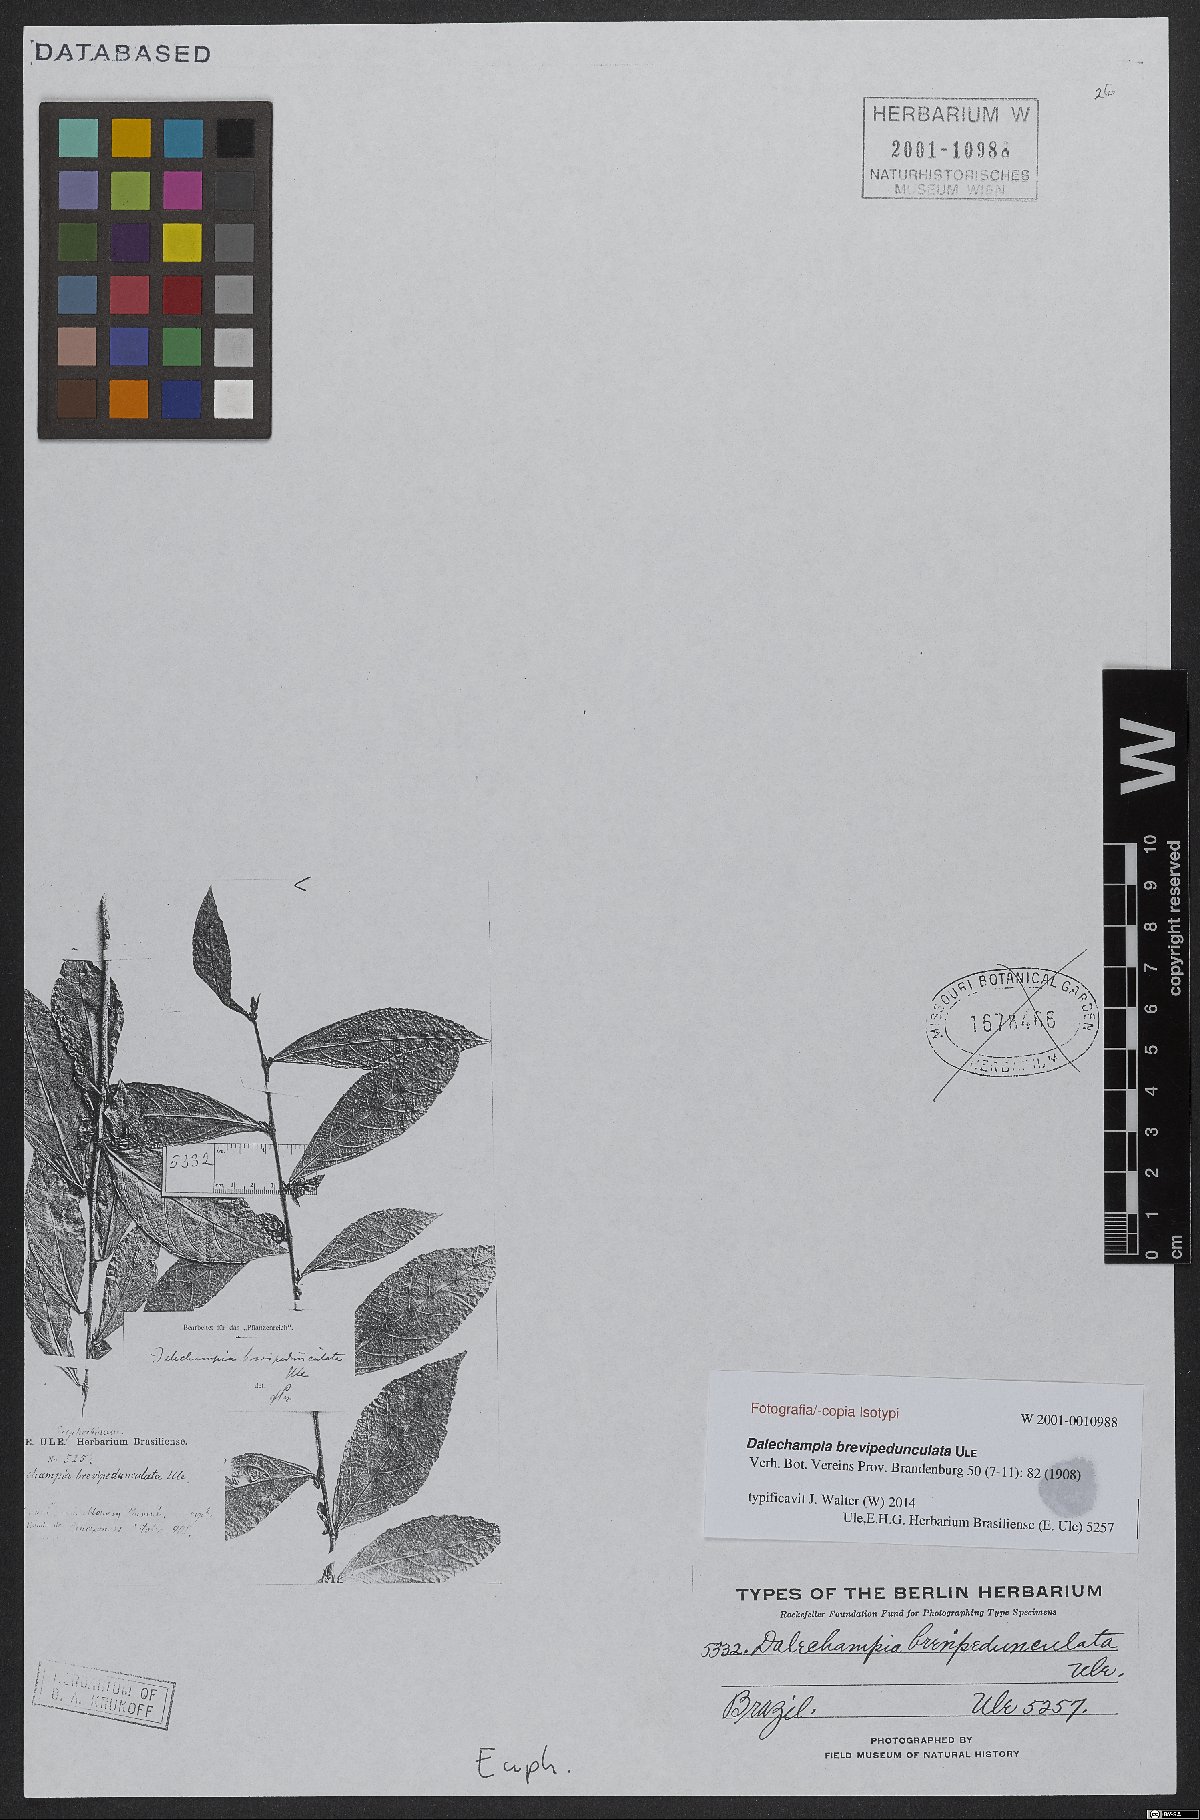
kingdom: Plantae
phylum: Tracheophyta
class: Magnoliopsida
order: Malpighiales
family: Euphorbiaceae
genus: Dalechampia
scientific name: Dalechampia magnoliifolia
